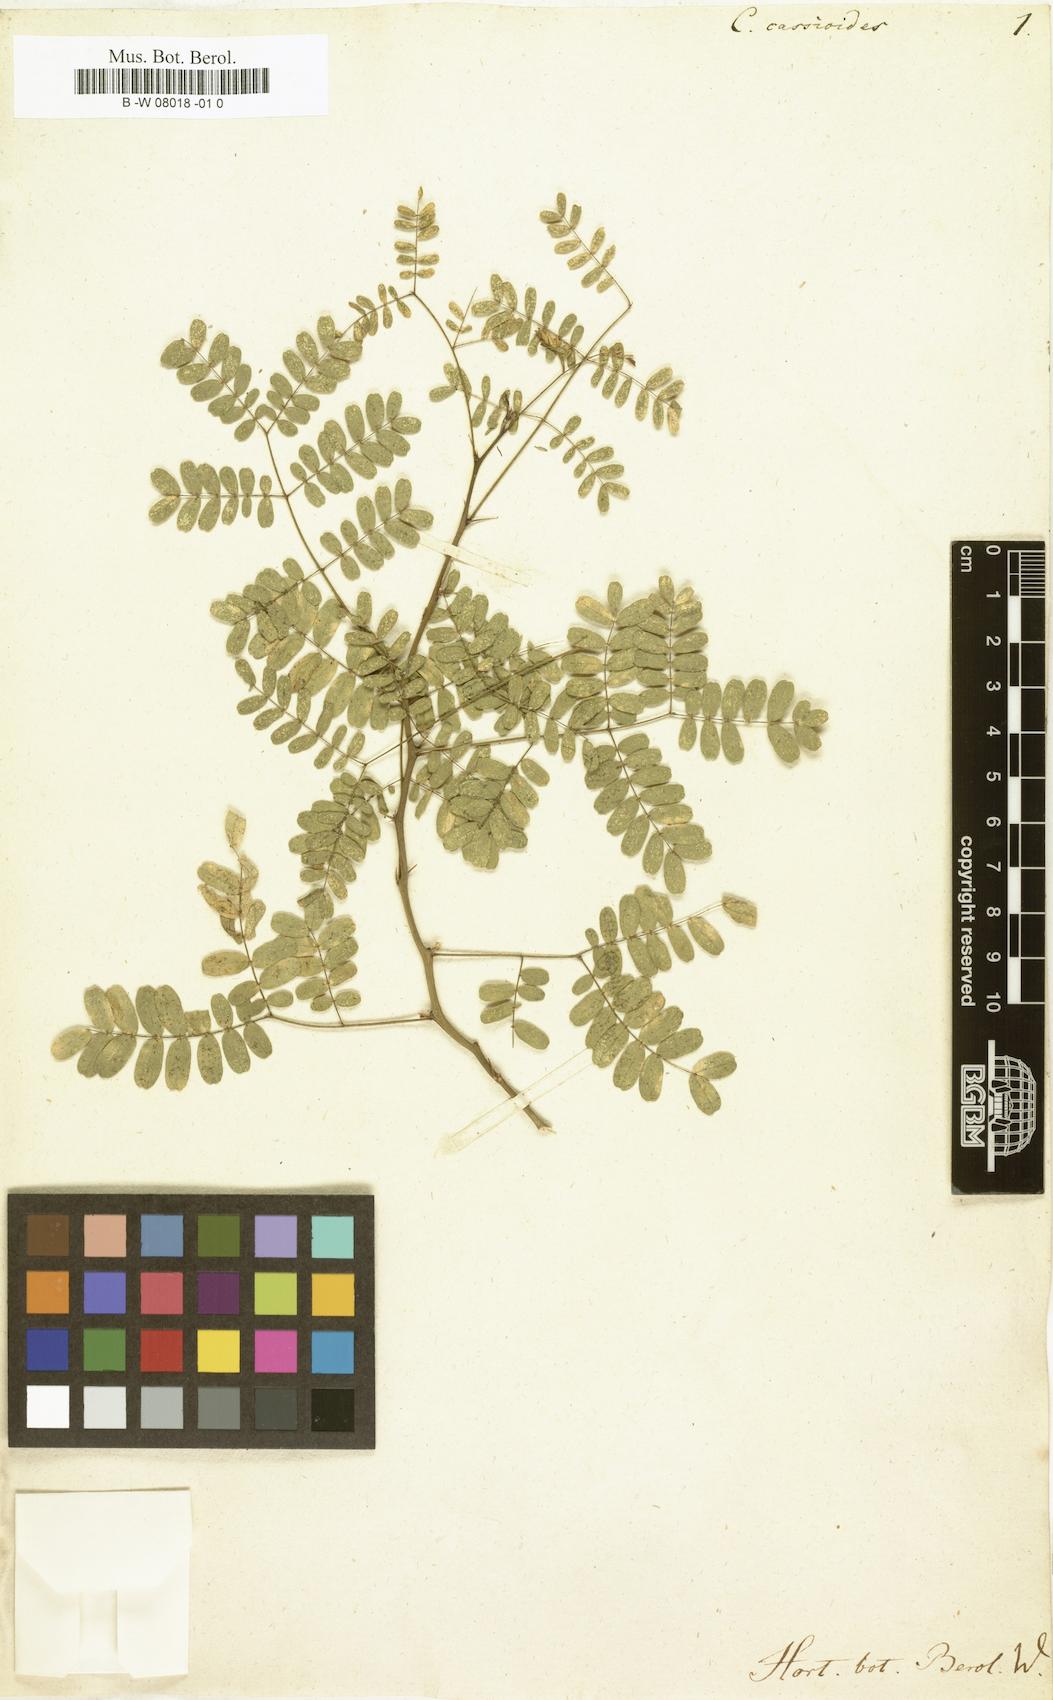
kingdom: Plantae
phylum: Tracheophyta
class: Magnoliopsida
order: Fabales
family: Fabaceae
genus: Caesalpinia
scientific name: Caesalpinia cassioides
